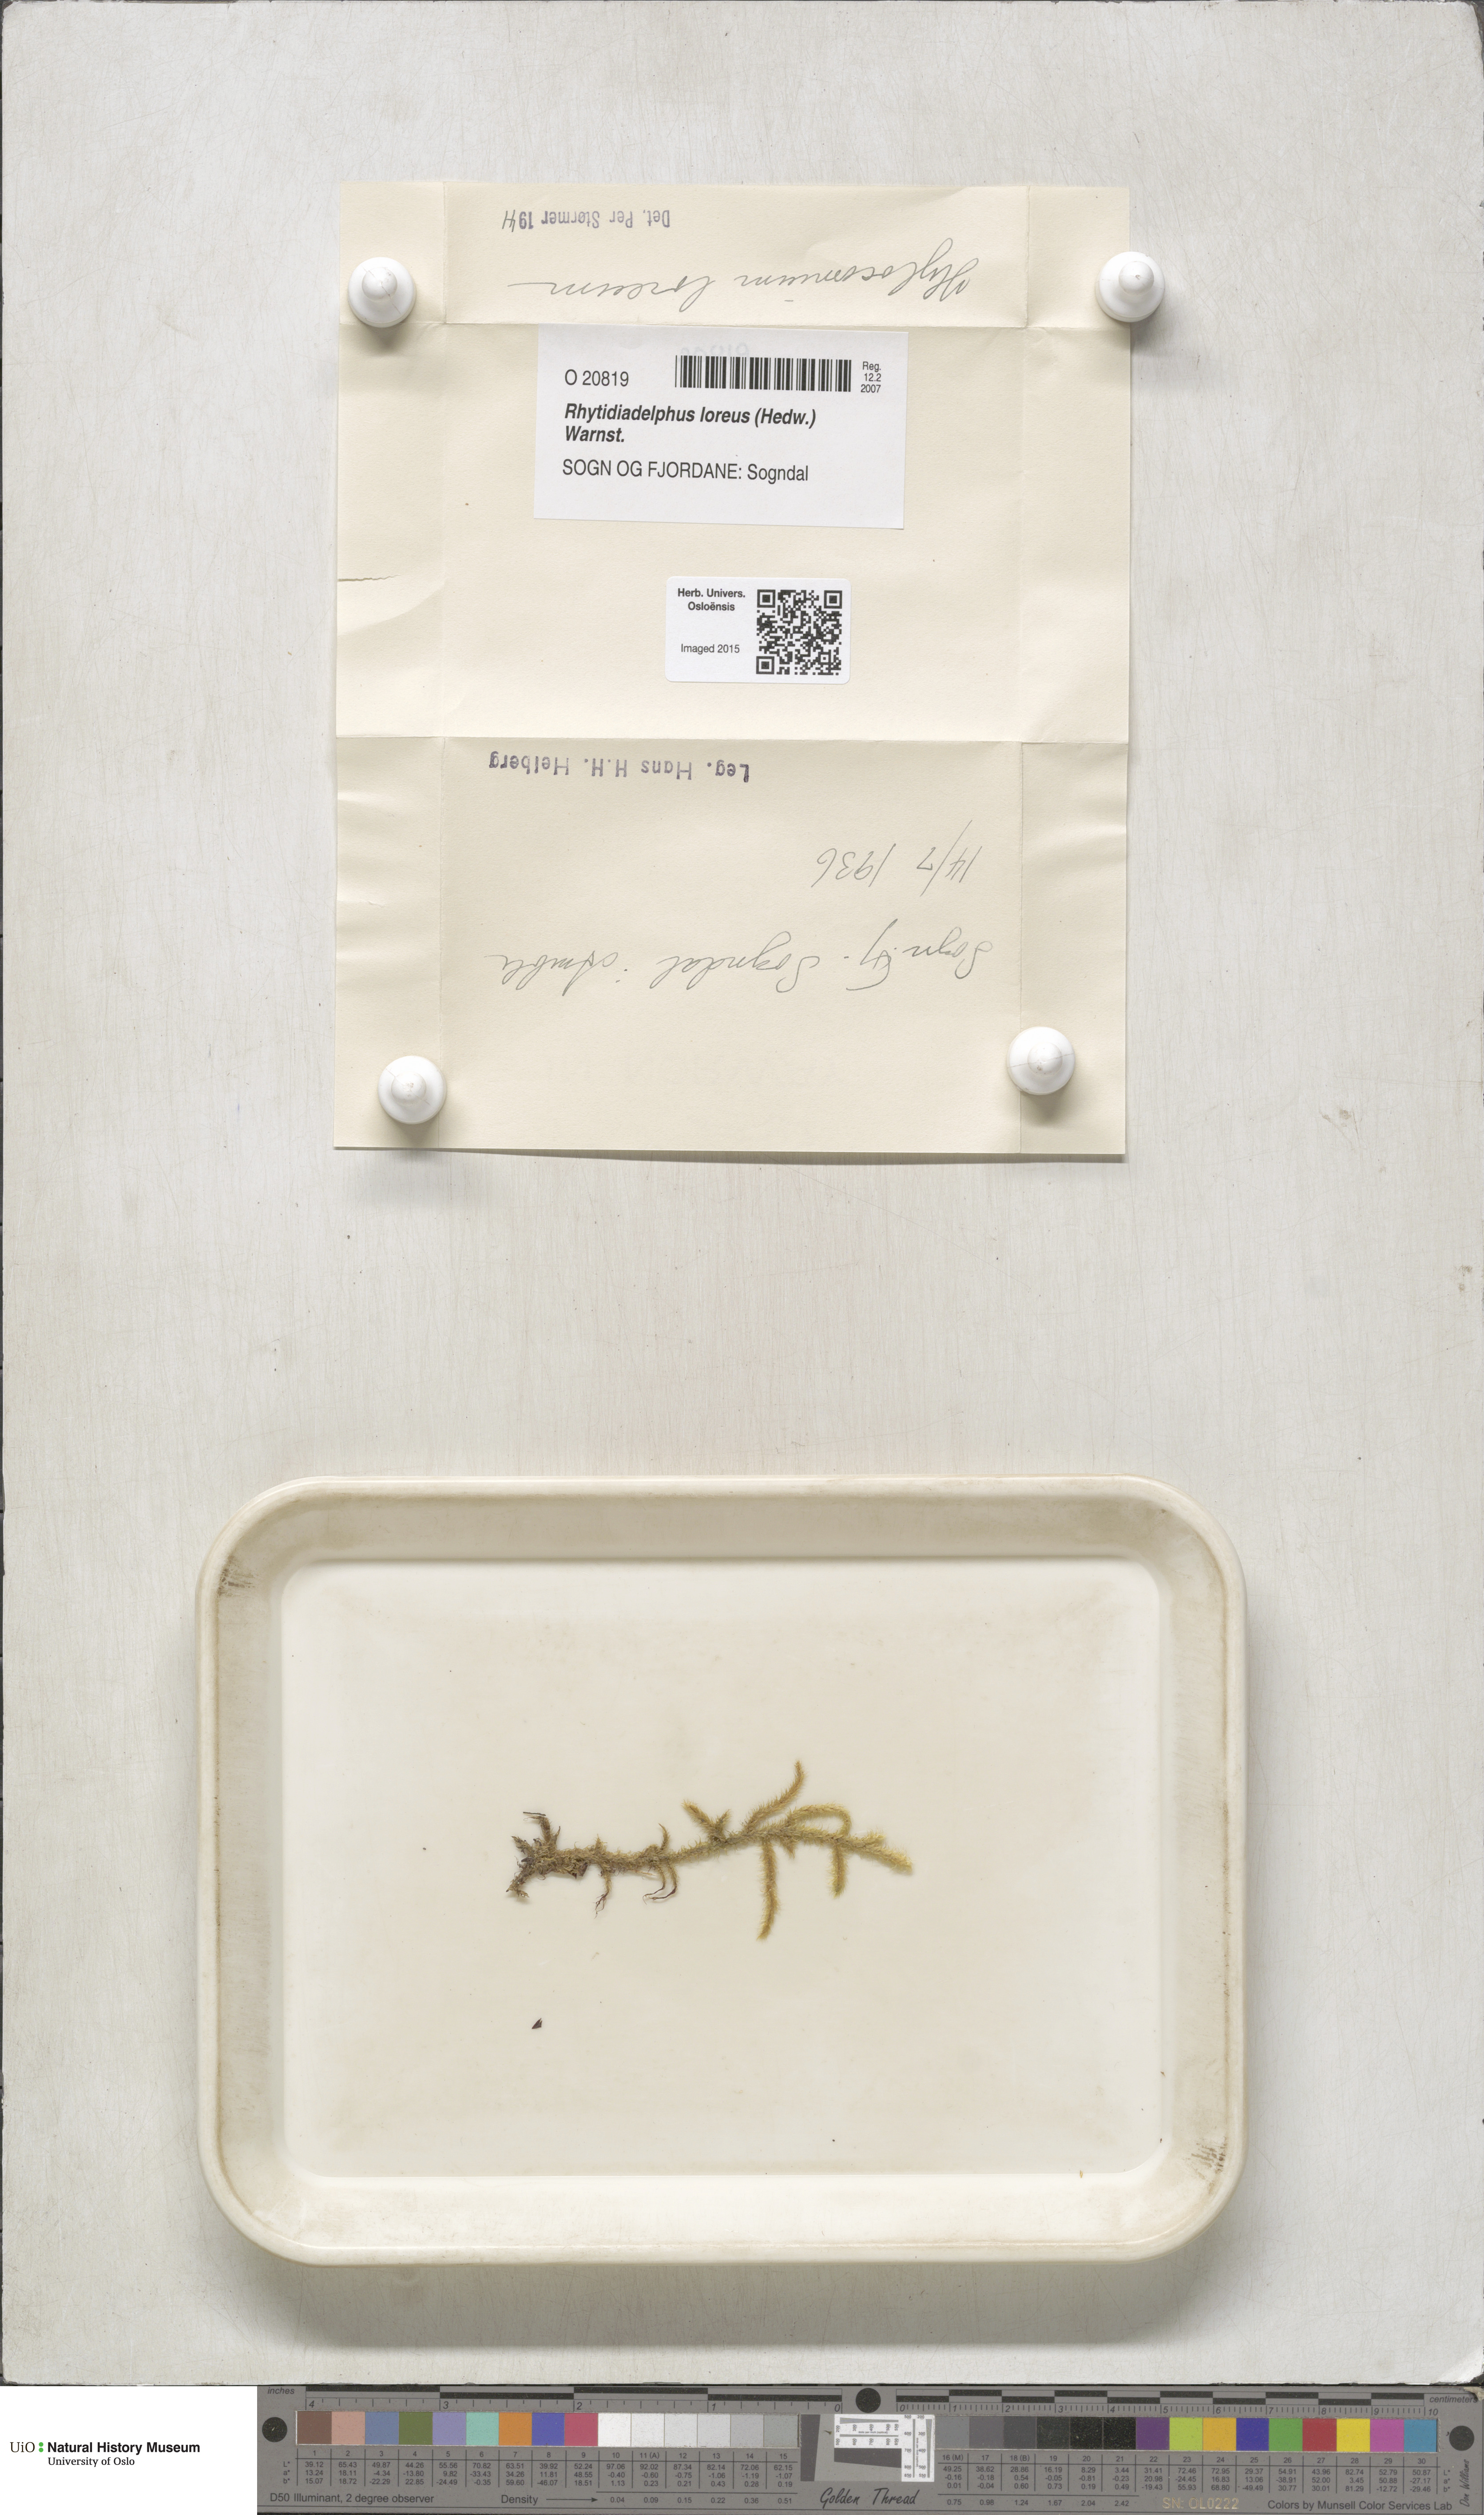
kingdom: Plantae
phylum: Bryophyta
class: Bryopsida
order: Hypnales
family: Hylocomiaceae
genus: Rhytidiadelphus
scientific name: Rhytidiadelphus loreus
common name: Lanky moss
